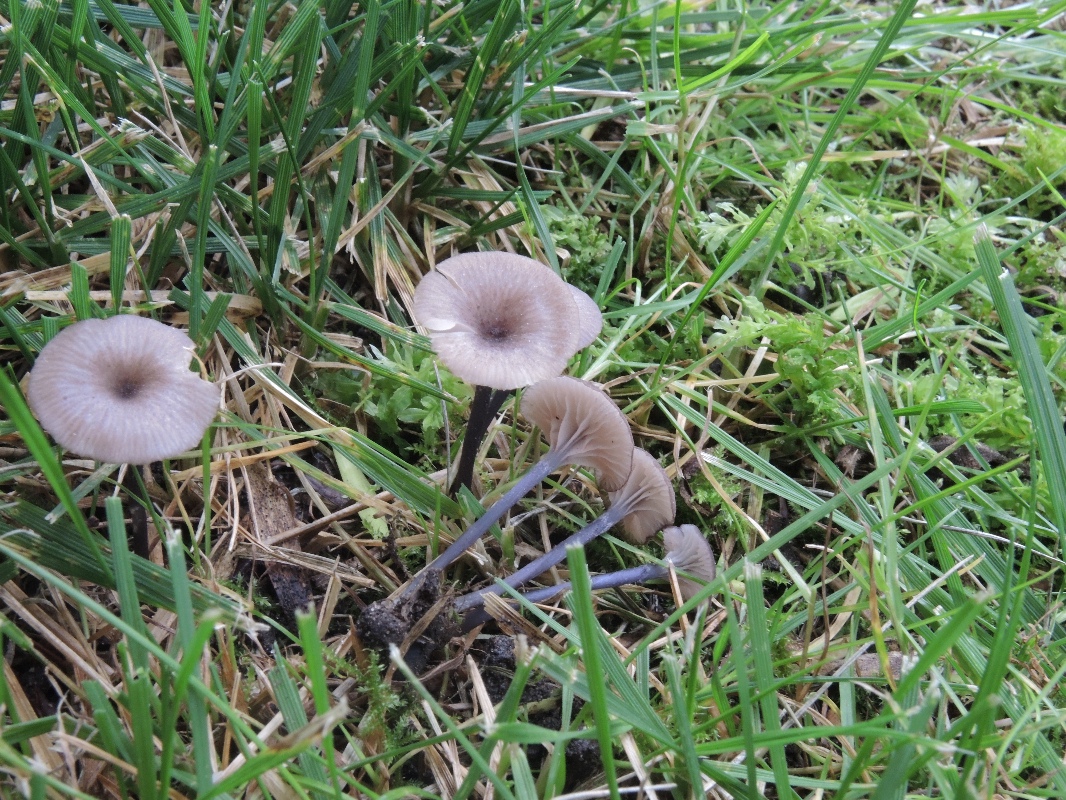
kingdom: Fungi
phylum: Basidiomycota
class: Agaricomycetes
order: Agaricales
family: Entolomataceae
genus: Entoloma
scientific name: Entoloma incarnatofuscescens
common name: tragt-rødblad
